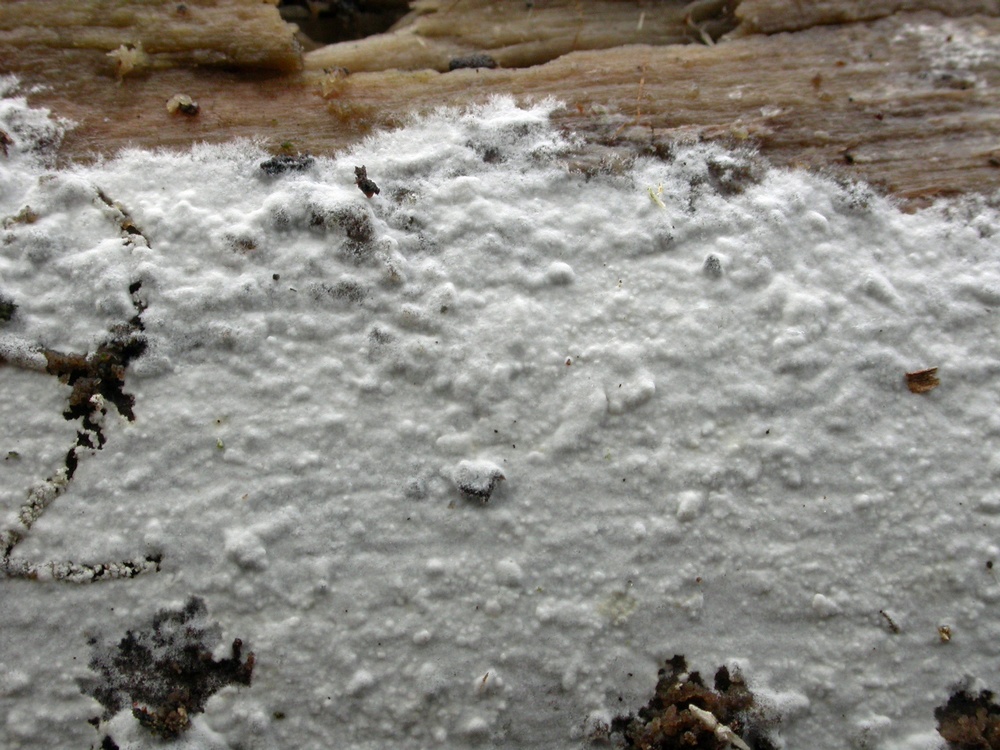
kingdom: Fungi
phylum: Basidiomycota
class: Agaricomycetes
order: Polyporales
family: Phanerochaetaceae
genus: Phanerochaete
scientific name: Phanerochaete sordida
